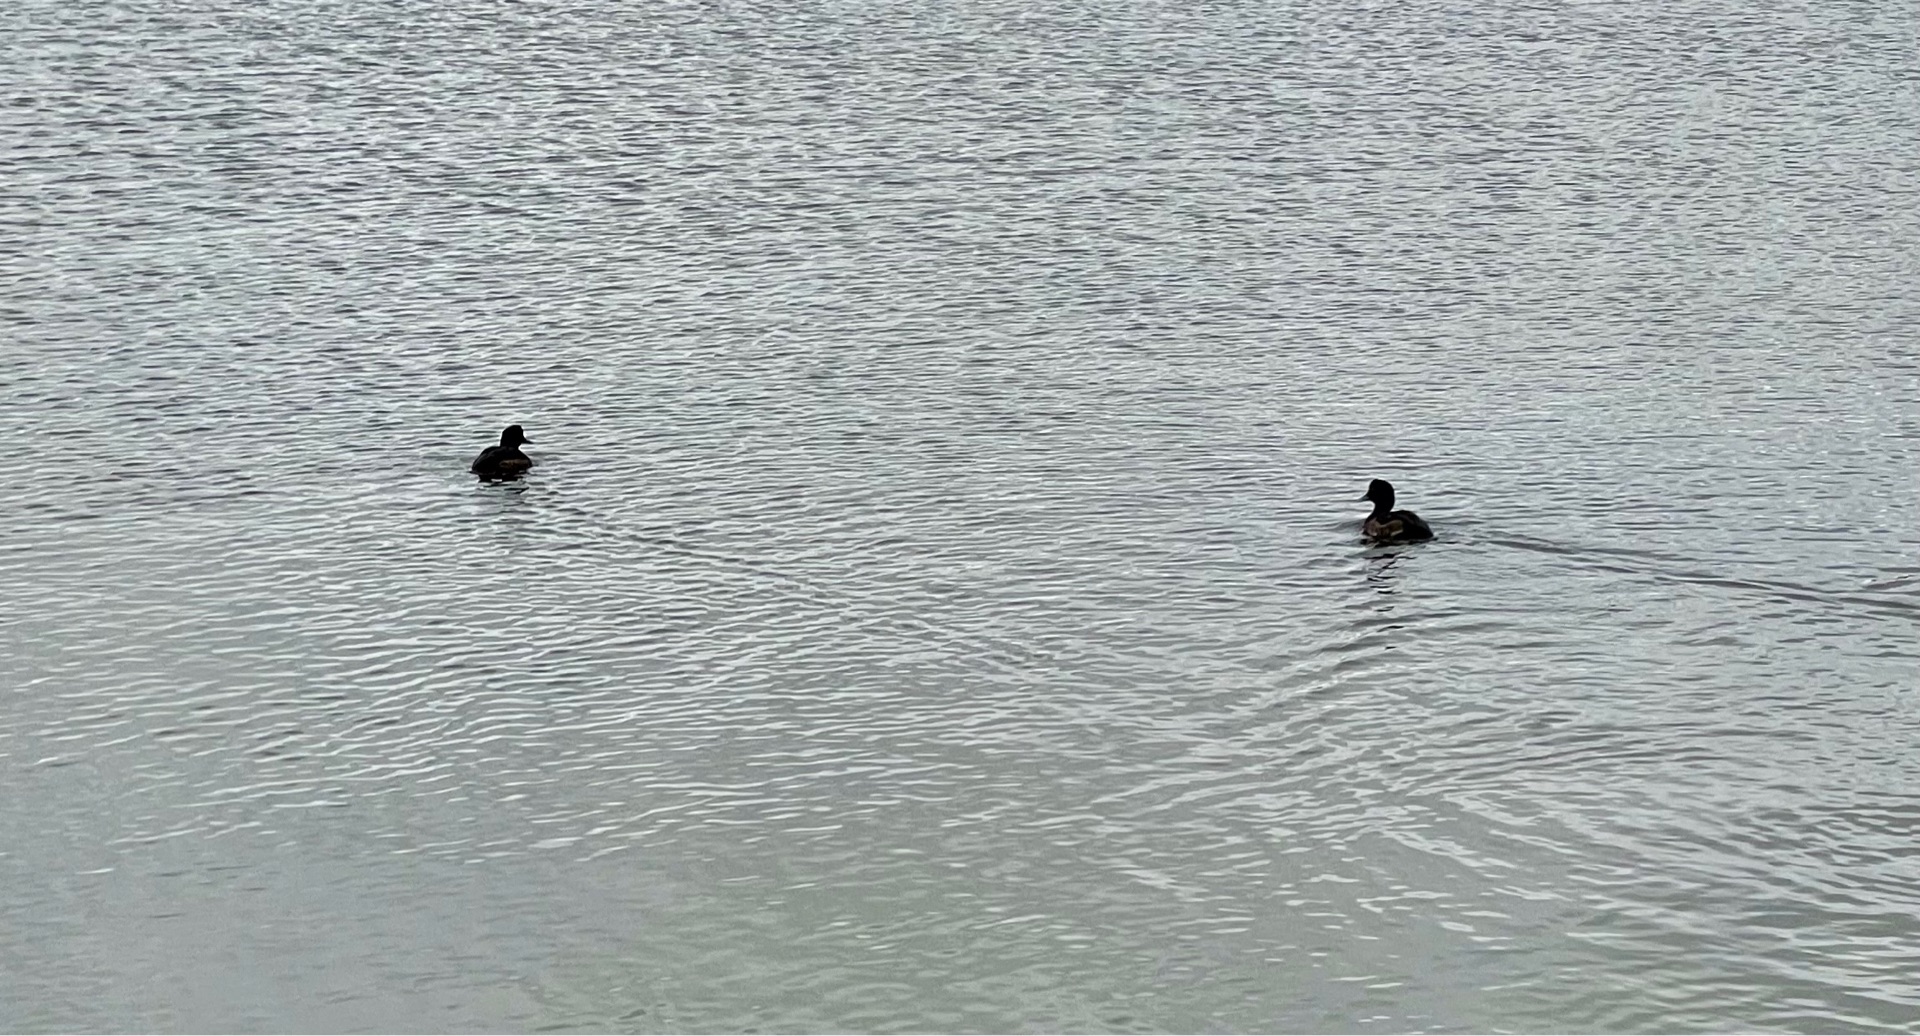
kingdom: Animalia
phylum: Chordata
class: Aves
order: Anseriformes
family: Anatidae
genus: Aythya
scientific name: Aythya fuligula
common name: Troldand
